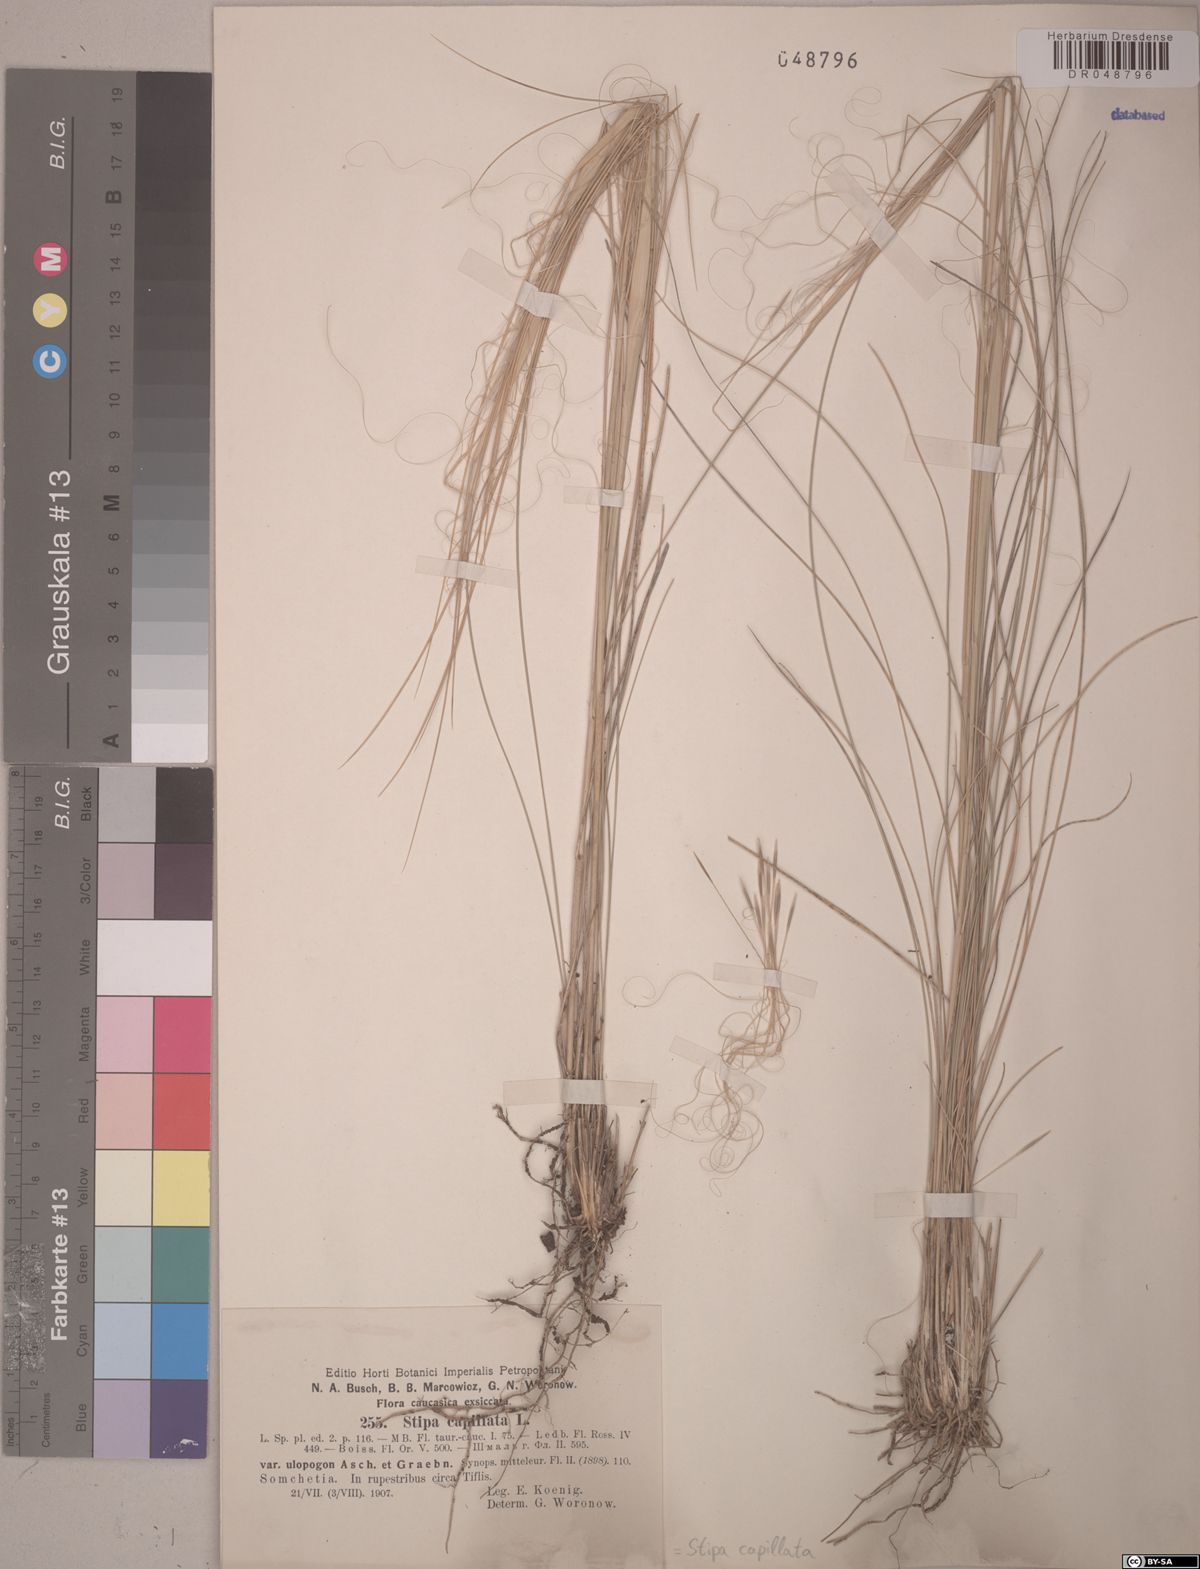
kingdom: Plantae
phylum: Tracheophyta
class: Liliopsida
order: Poales
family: Poaceae
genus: Stipa
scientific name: Stipa capillata
